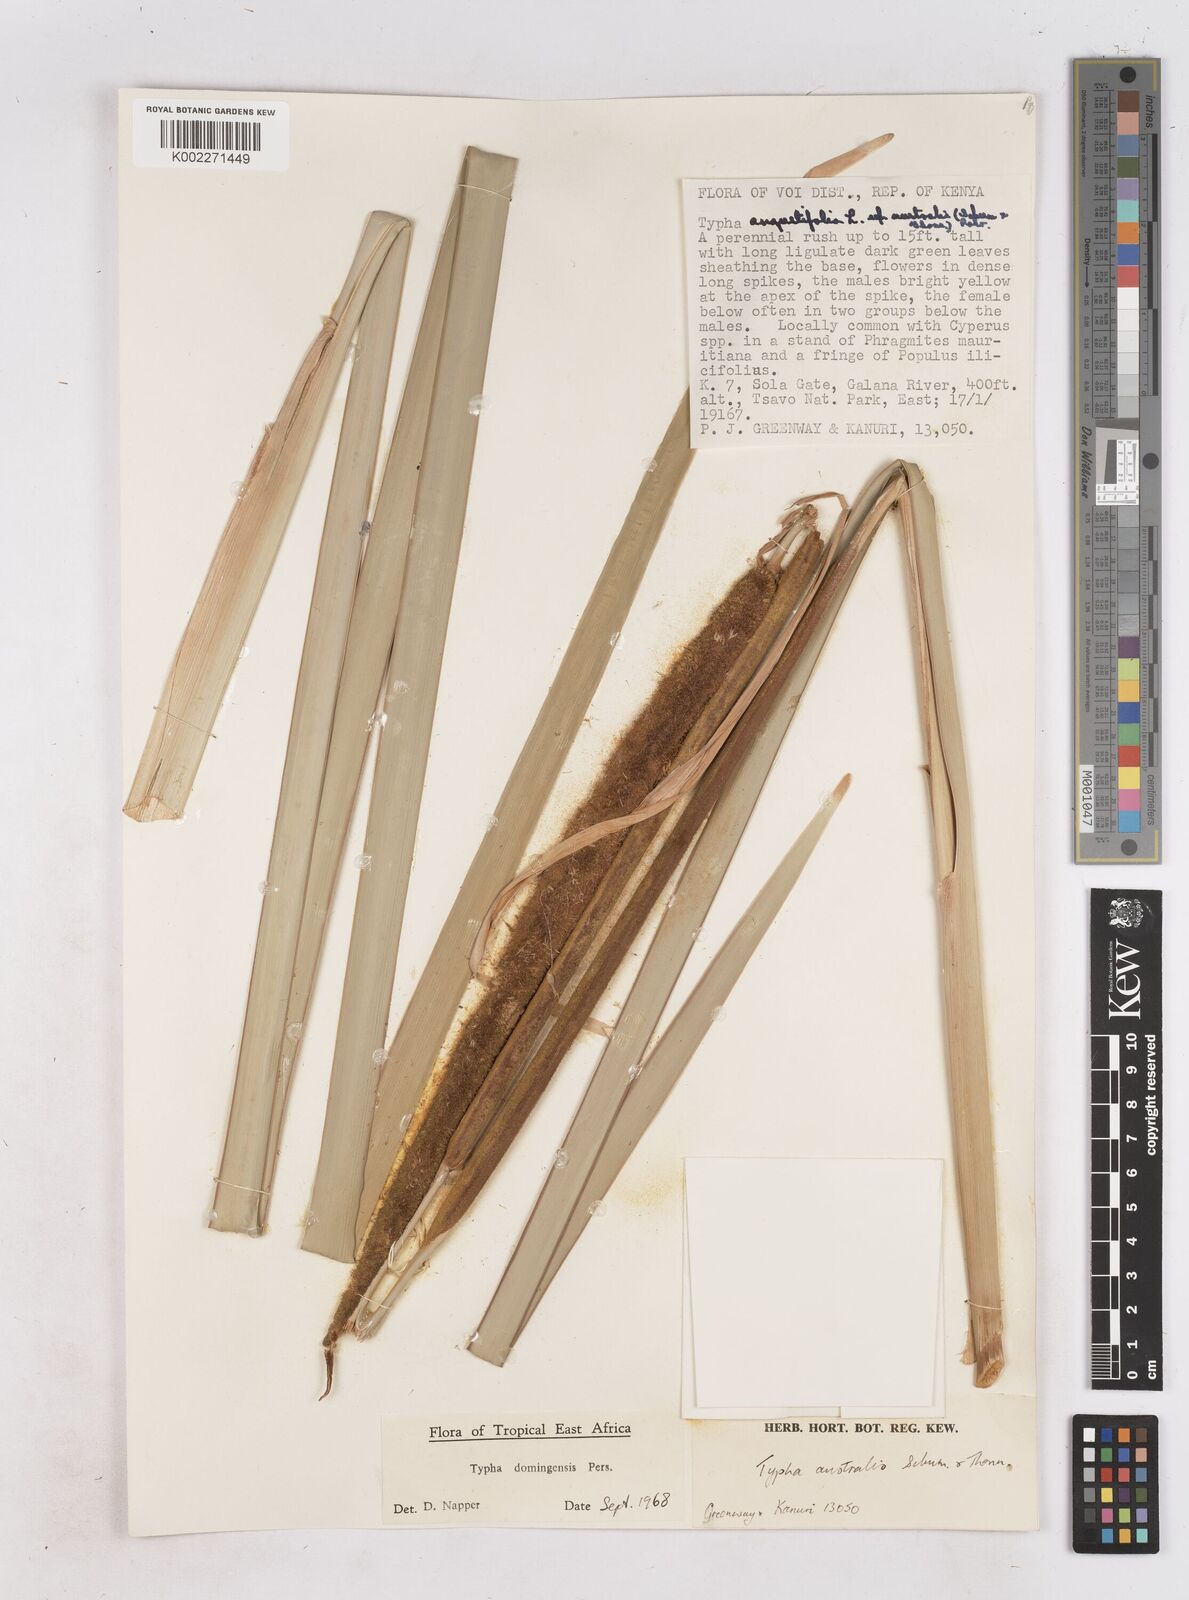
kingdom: Plantae
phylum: Tracheophyta
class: Liliopsida
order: Poales
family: Typhaceae
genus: Typha
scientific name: Typha domingensis
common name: Southern cattail
